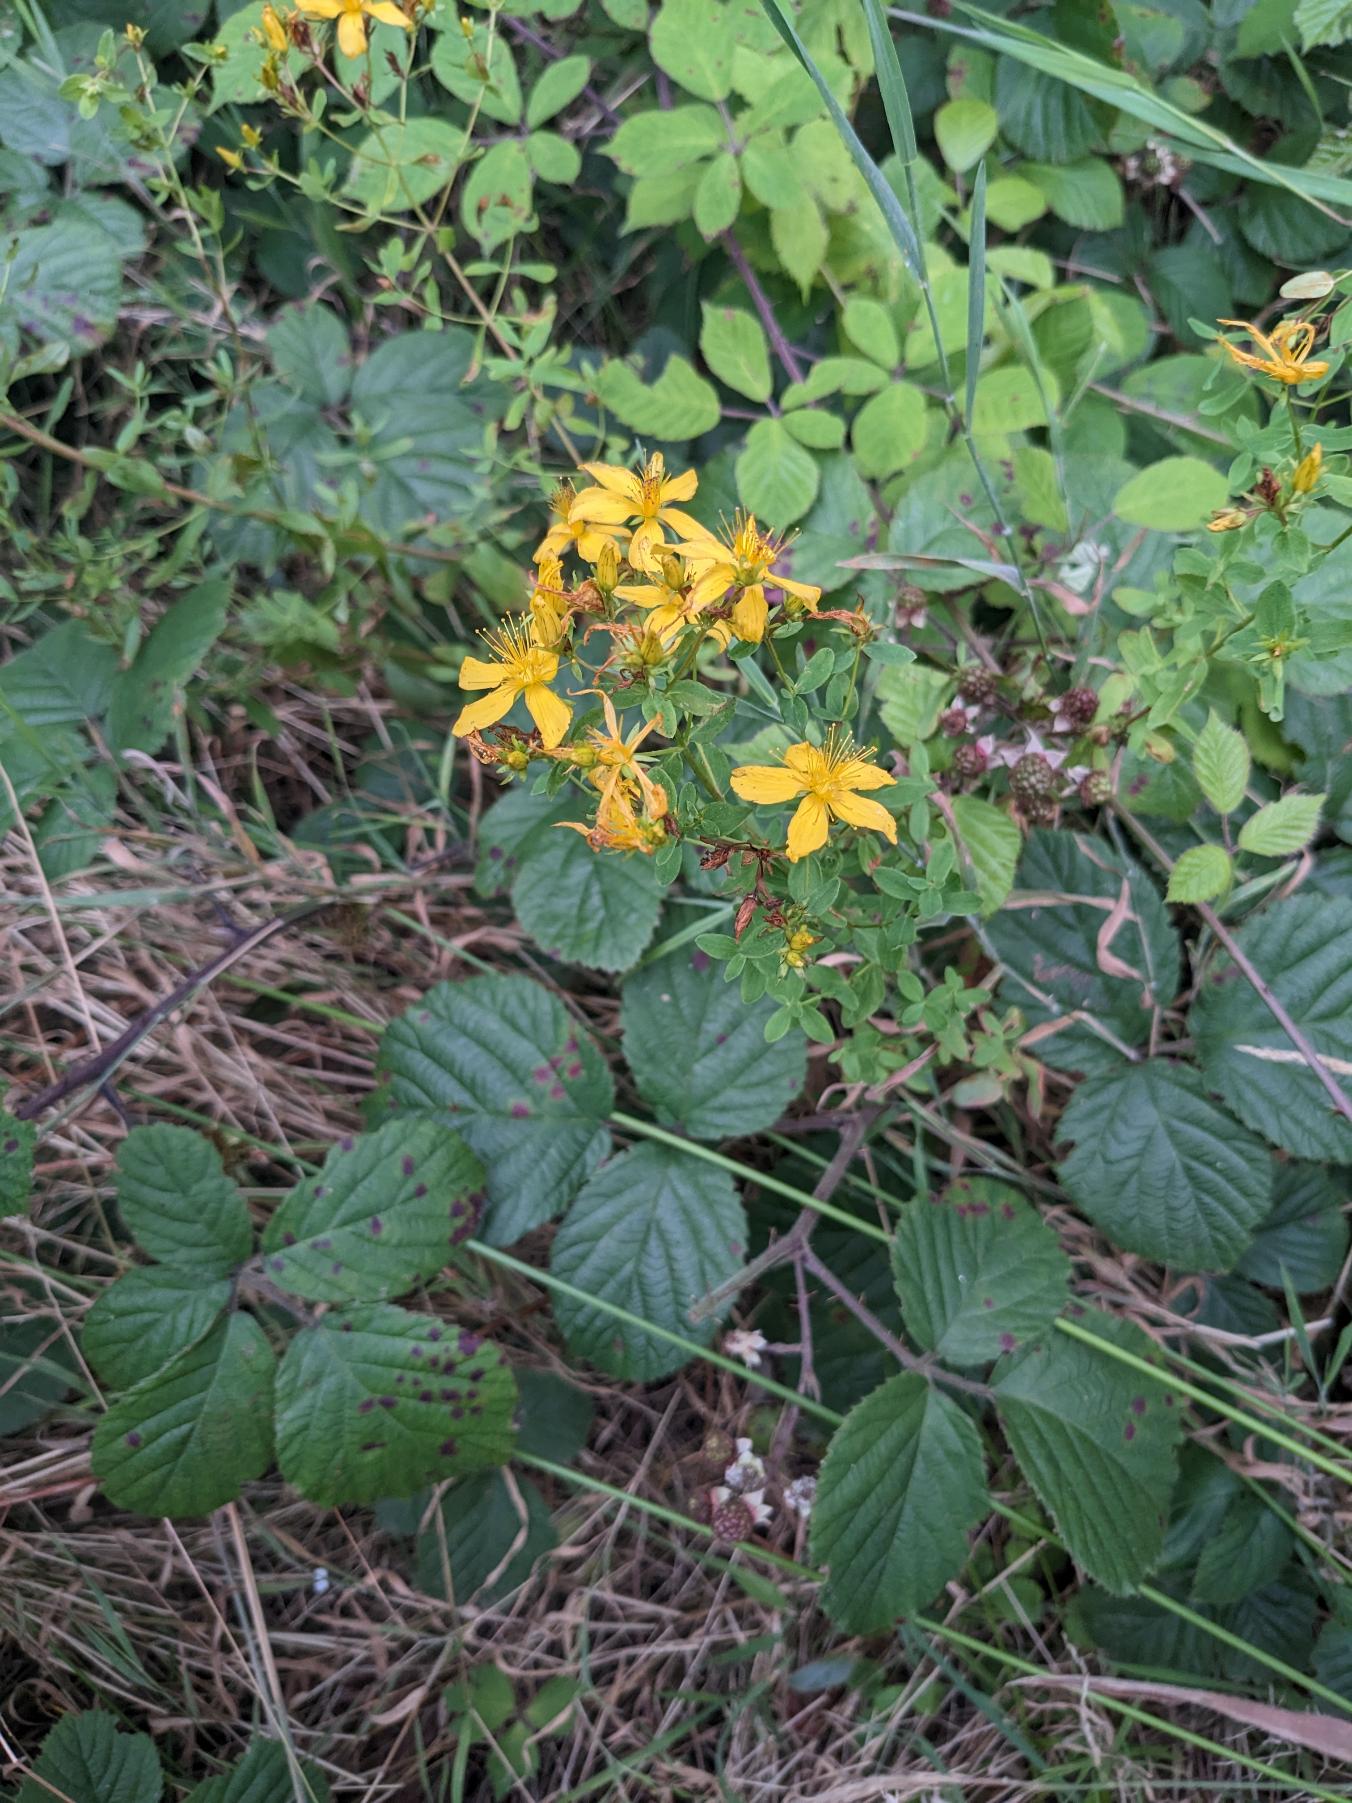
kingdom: Plantae
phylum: Tracheophyta
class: Magnoliopsida
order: Malpighiales
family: Hypericaceae
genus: Hypericum
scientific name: Hypericum perforatum
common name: Prikbladet perikon
